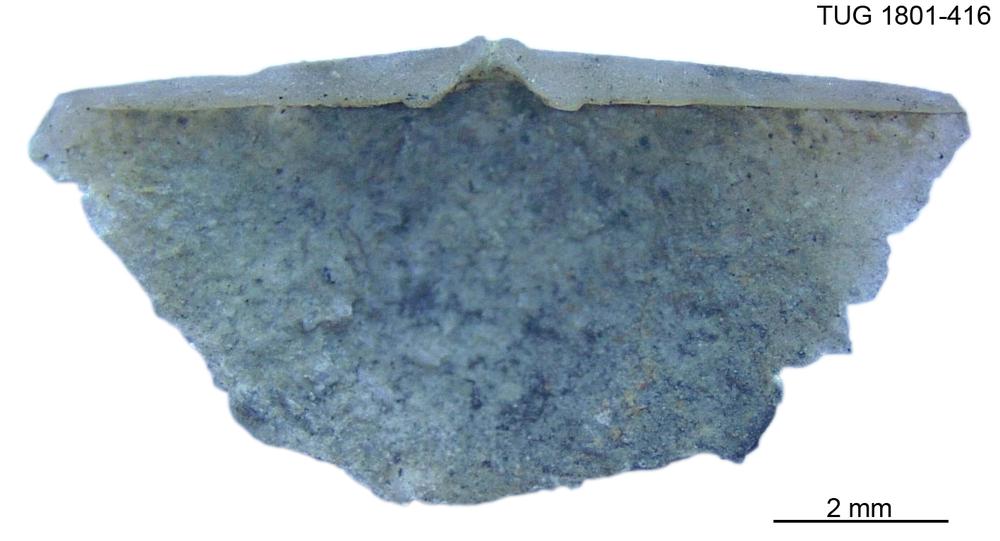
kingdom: Animalia
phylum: Brachiopoda
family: Oldhaminidae
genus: Eoplectodonta
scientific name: Eoplectodonta
